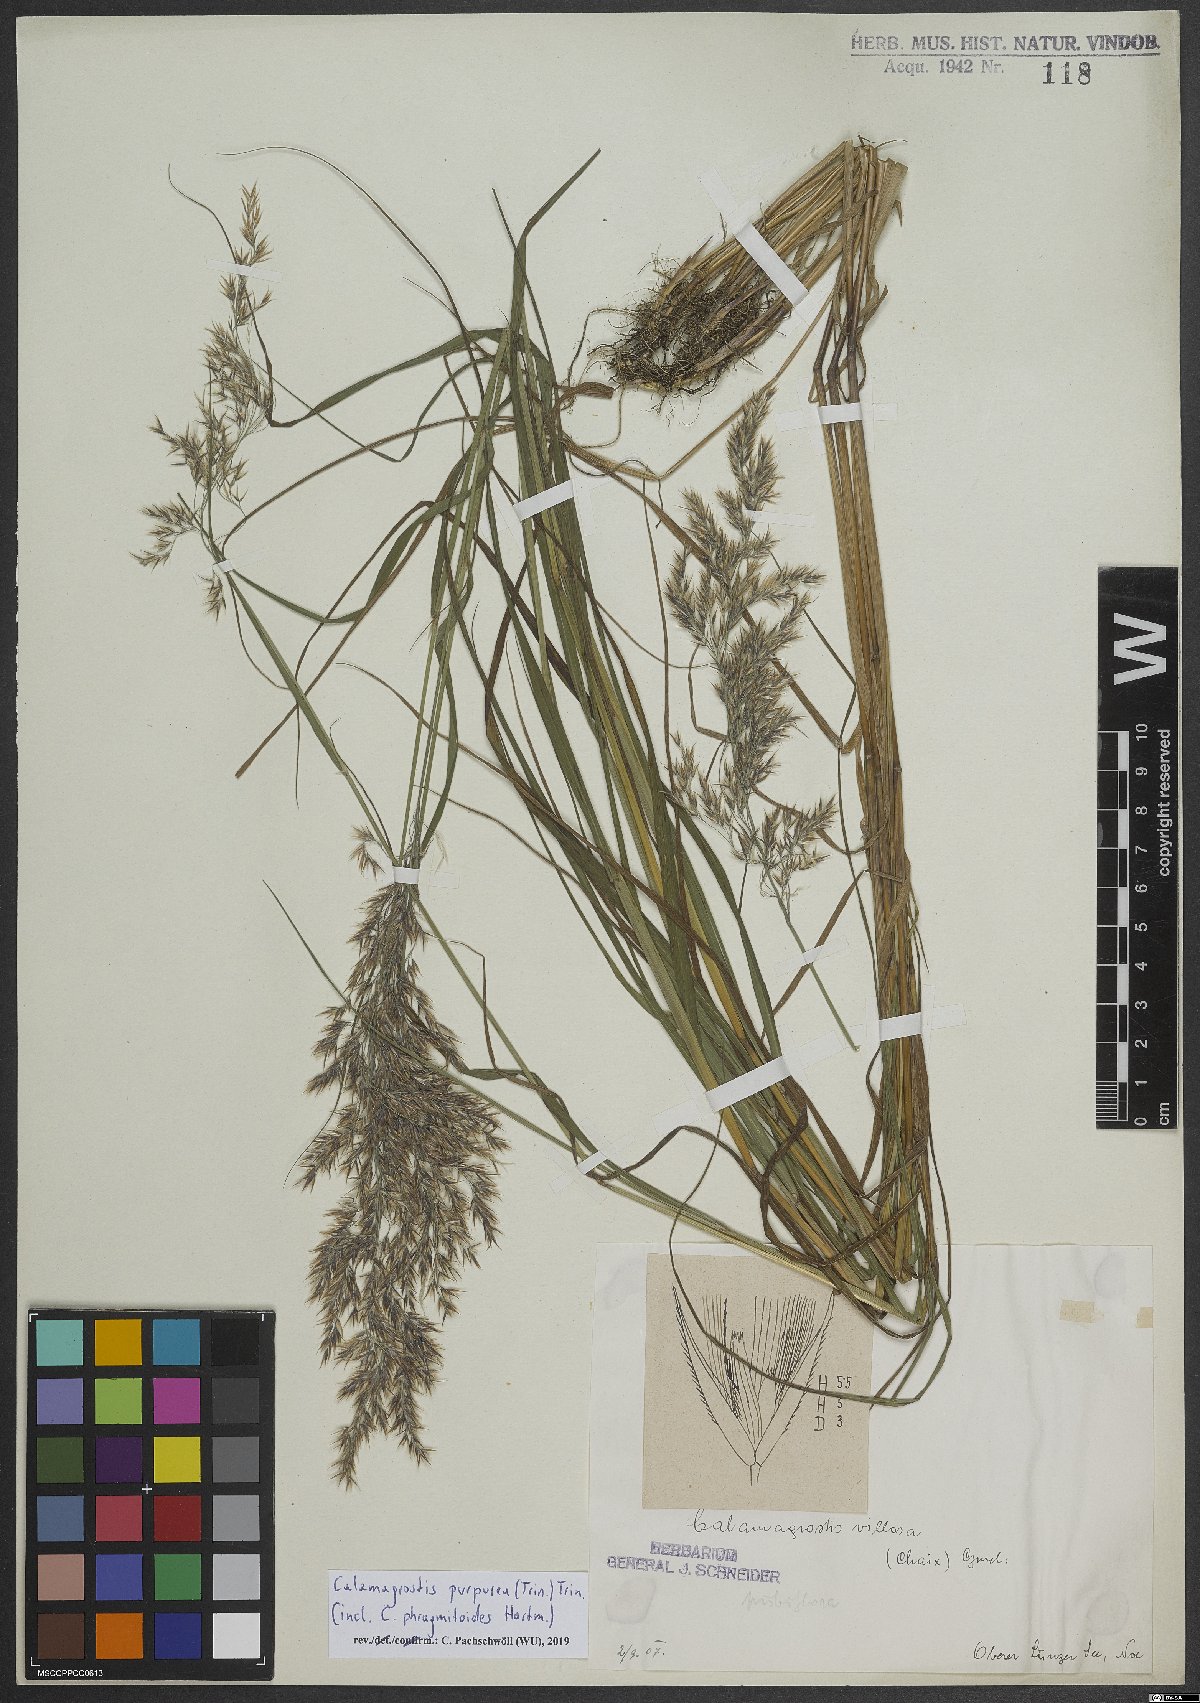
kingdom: Plantae
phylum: Tracheophyta
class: Liliopsida
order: Poales
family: Poaceae
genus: Calamagrostis
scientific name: Calamagrostis purpurea
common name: Scandinavian small-reed
